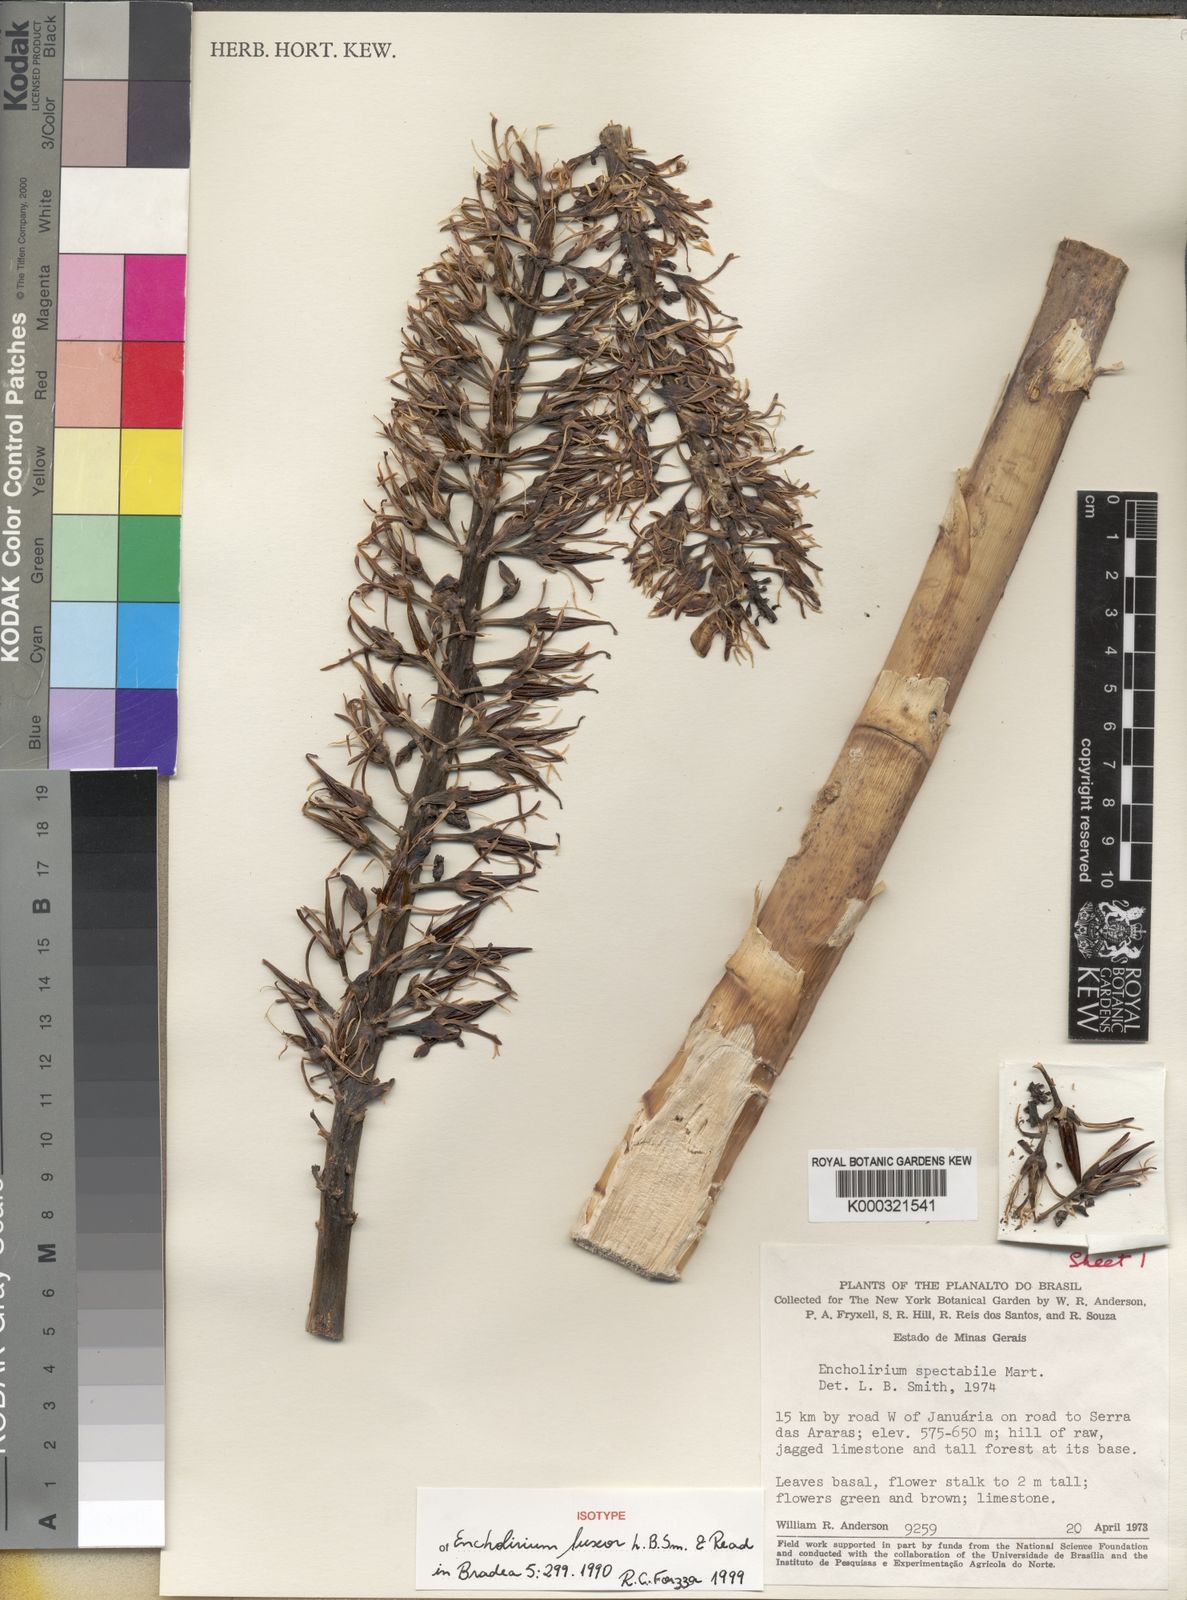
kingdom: Plantae
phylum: Tracheophyta
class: Liliopsida
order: Poales
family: Bromeliaceae
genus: Encholirium
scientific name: Encholirium luxor
